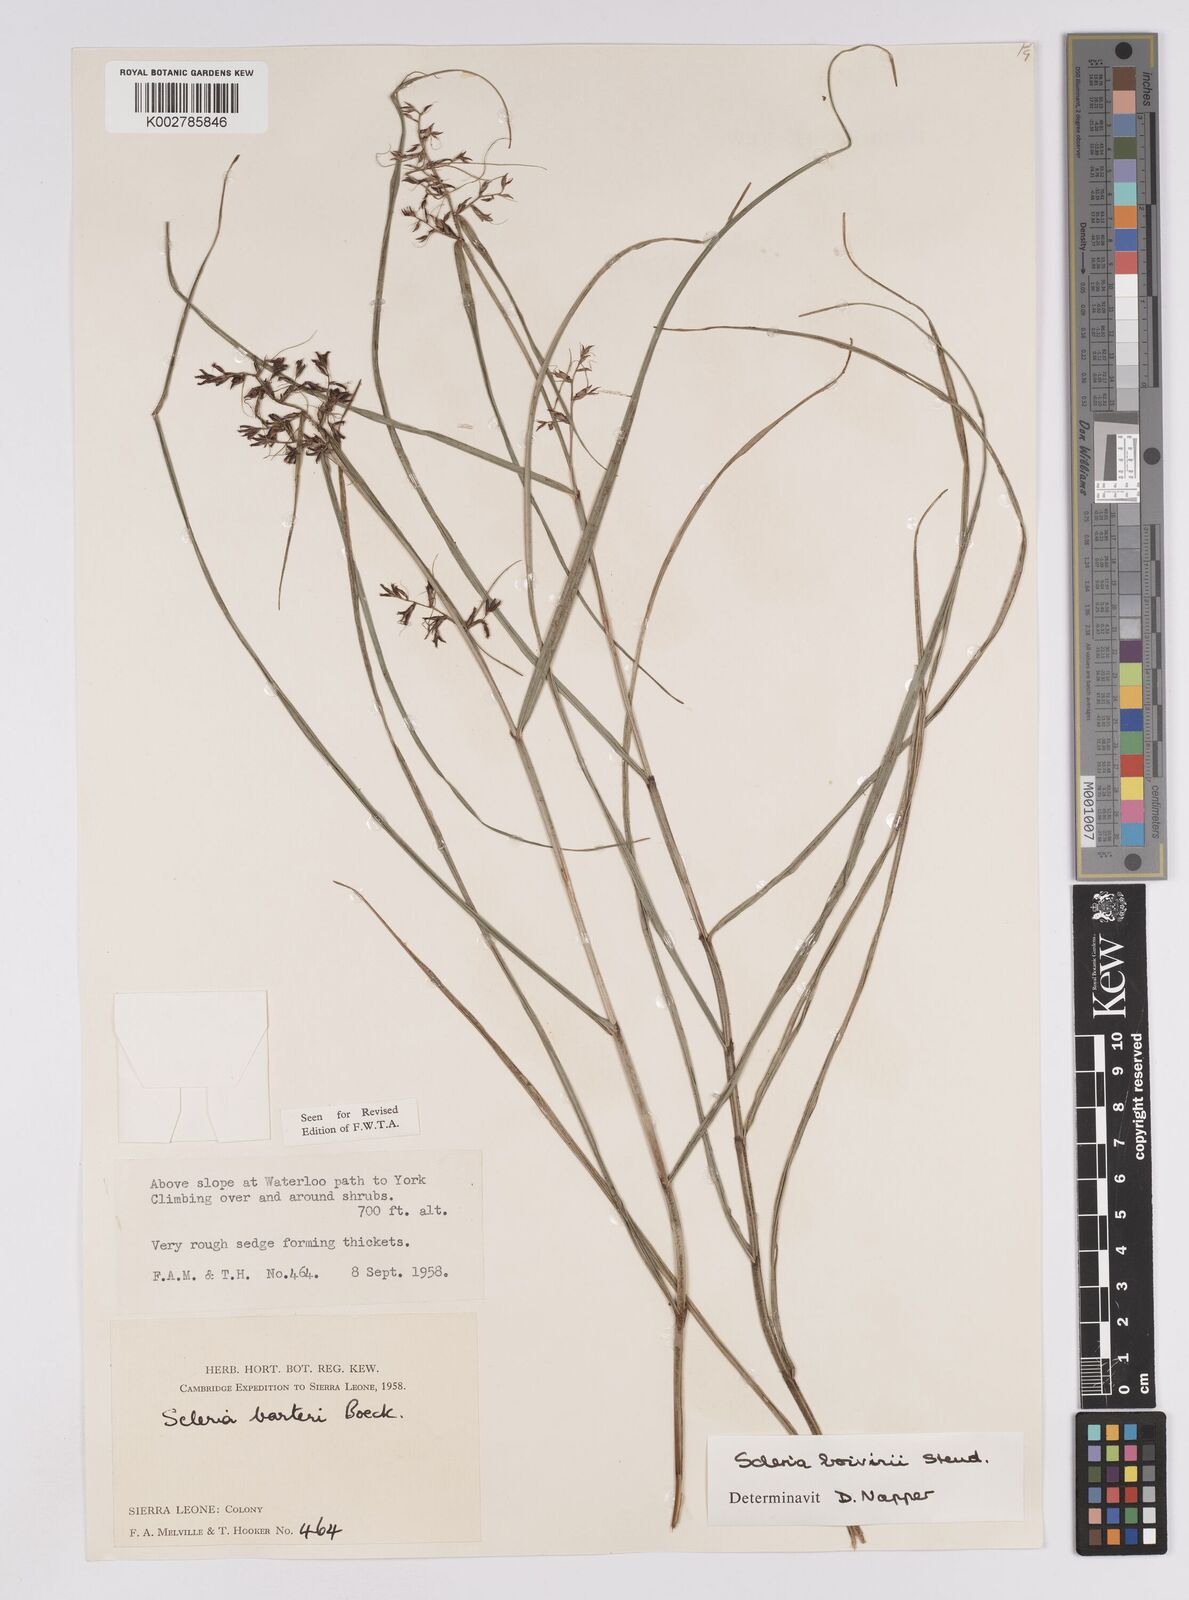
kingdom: Plantae
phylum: Tracheophyta
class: Liliopsida
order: Poales
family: Cyperaceae
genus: Scleria
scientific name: Scleria boivinii
